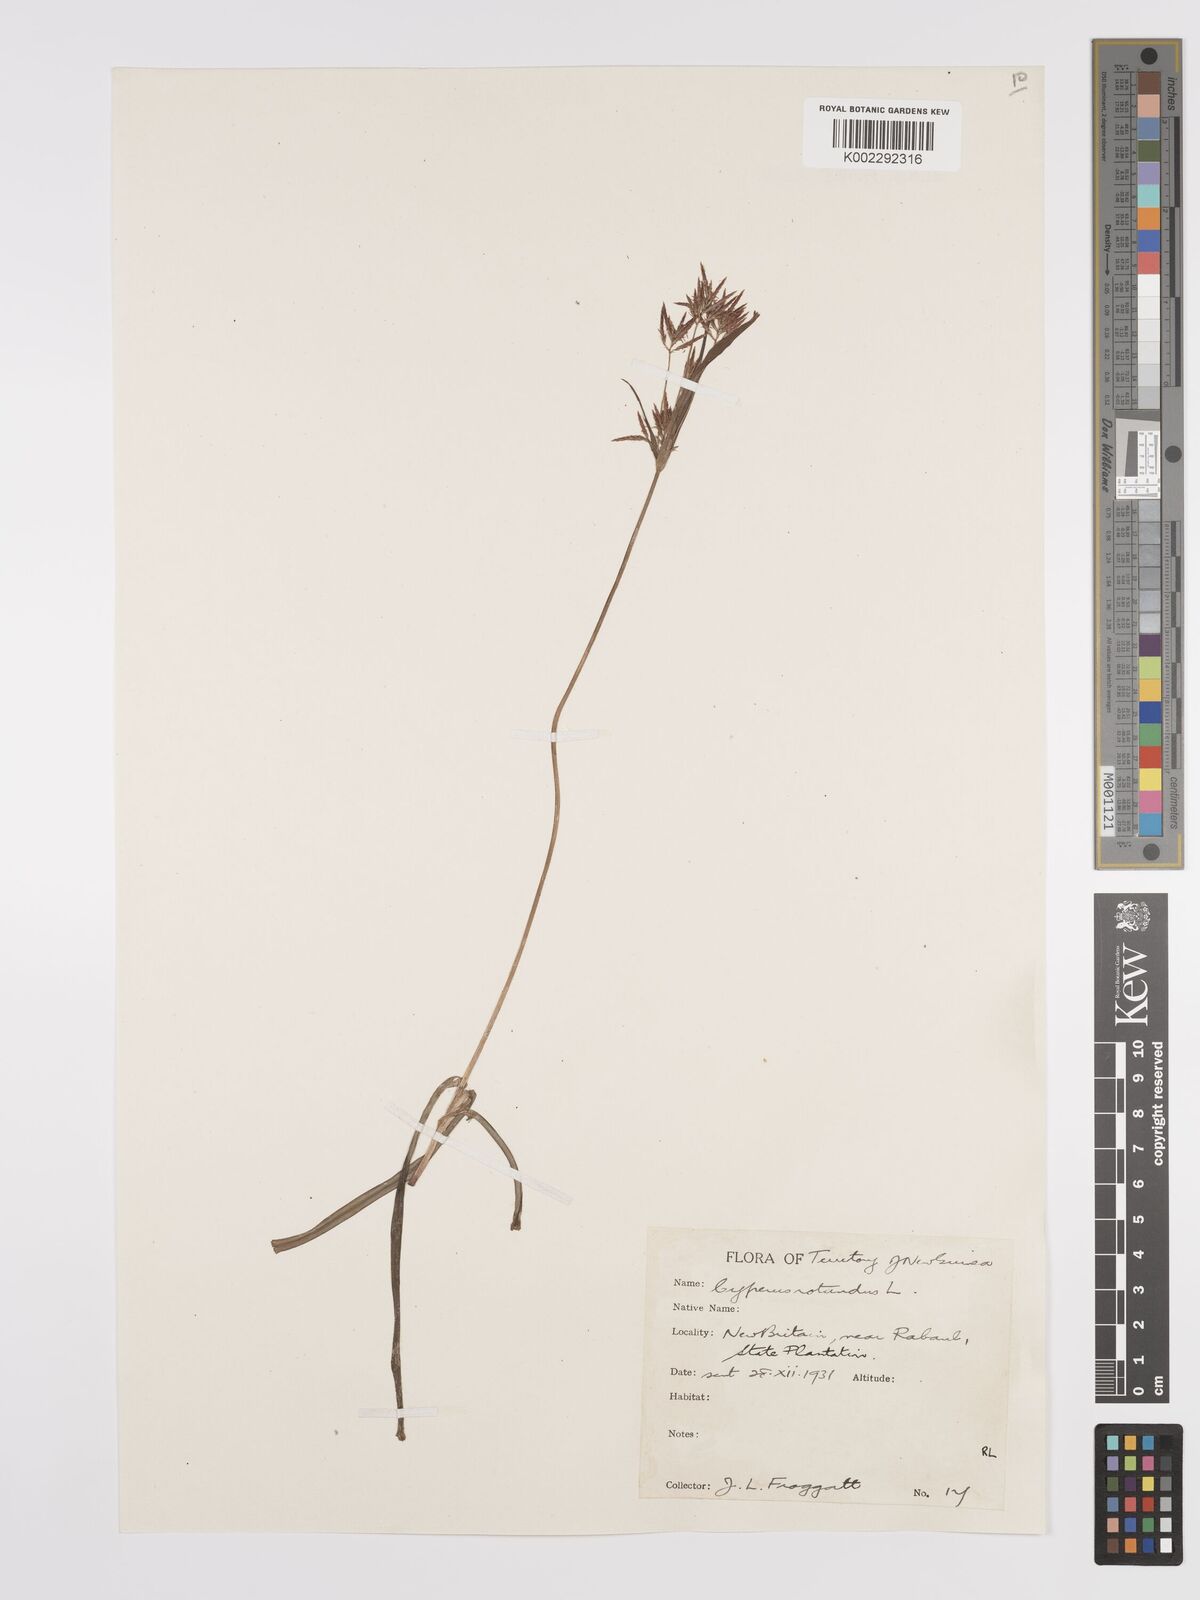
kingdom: Plantae
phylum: Tracheophyta
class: Liliopsida
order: Poales
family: Cyperaceae
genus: Cyperus
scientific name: Cyperus rotundus
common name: Nutgrass
